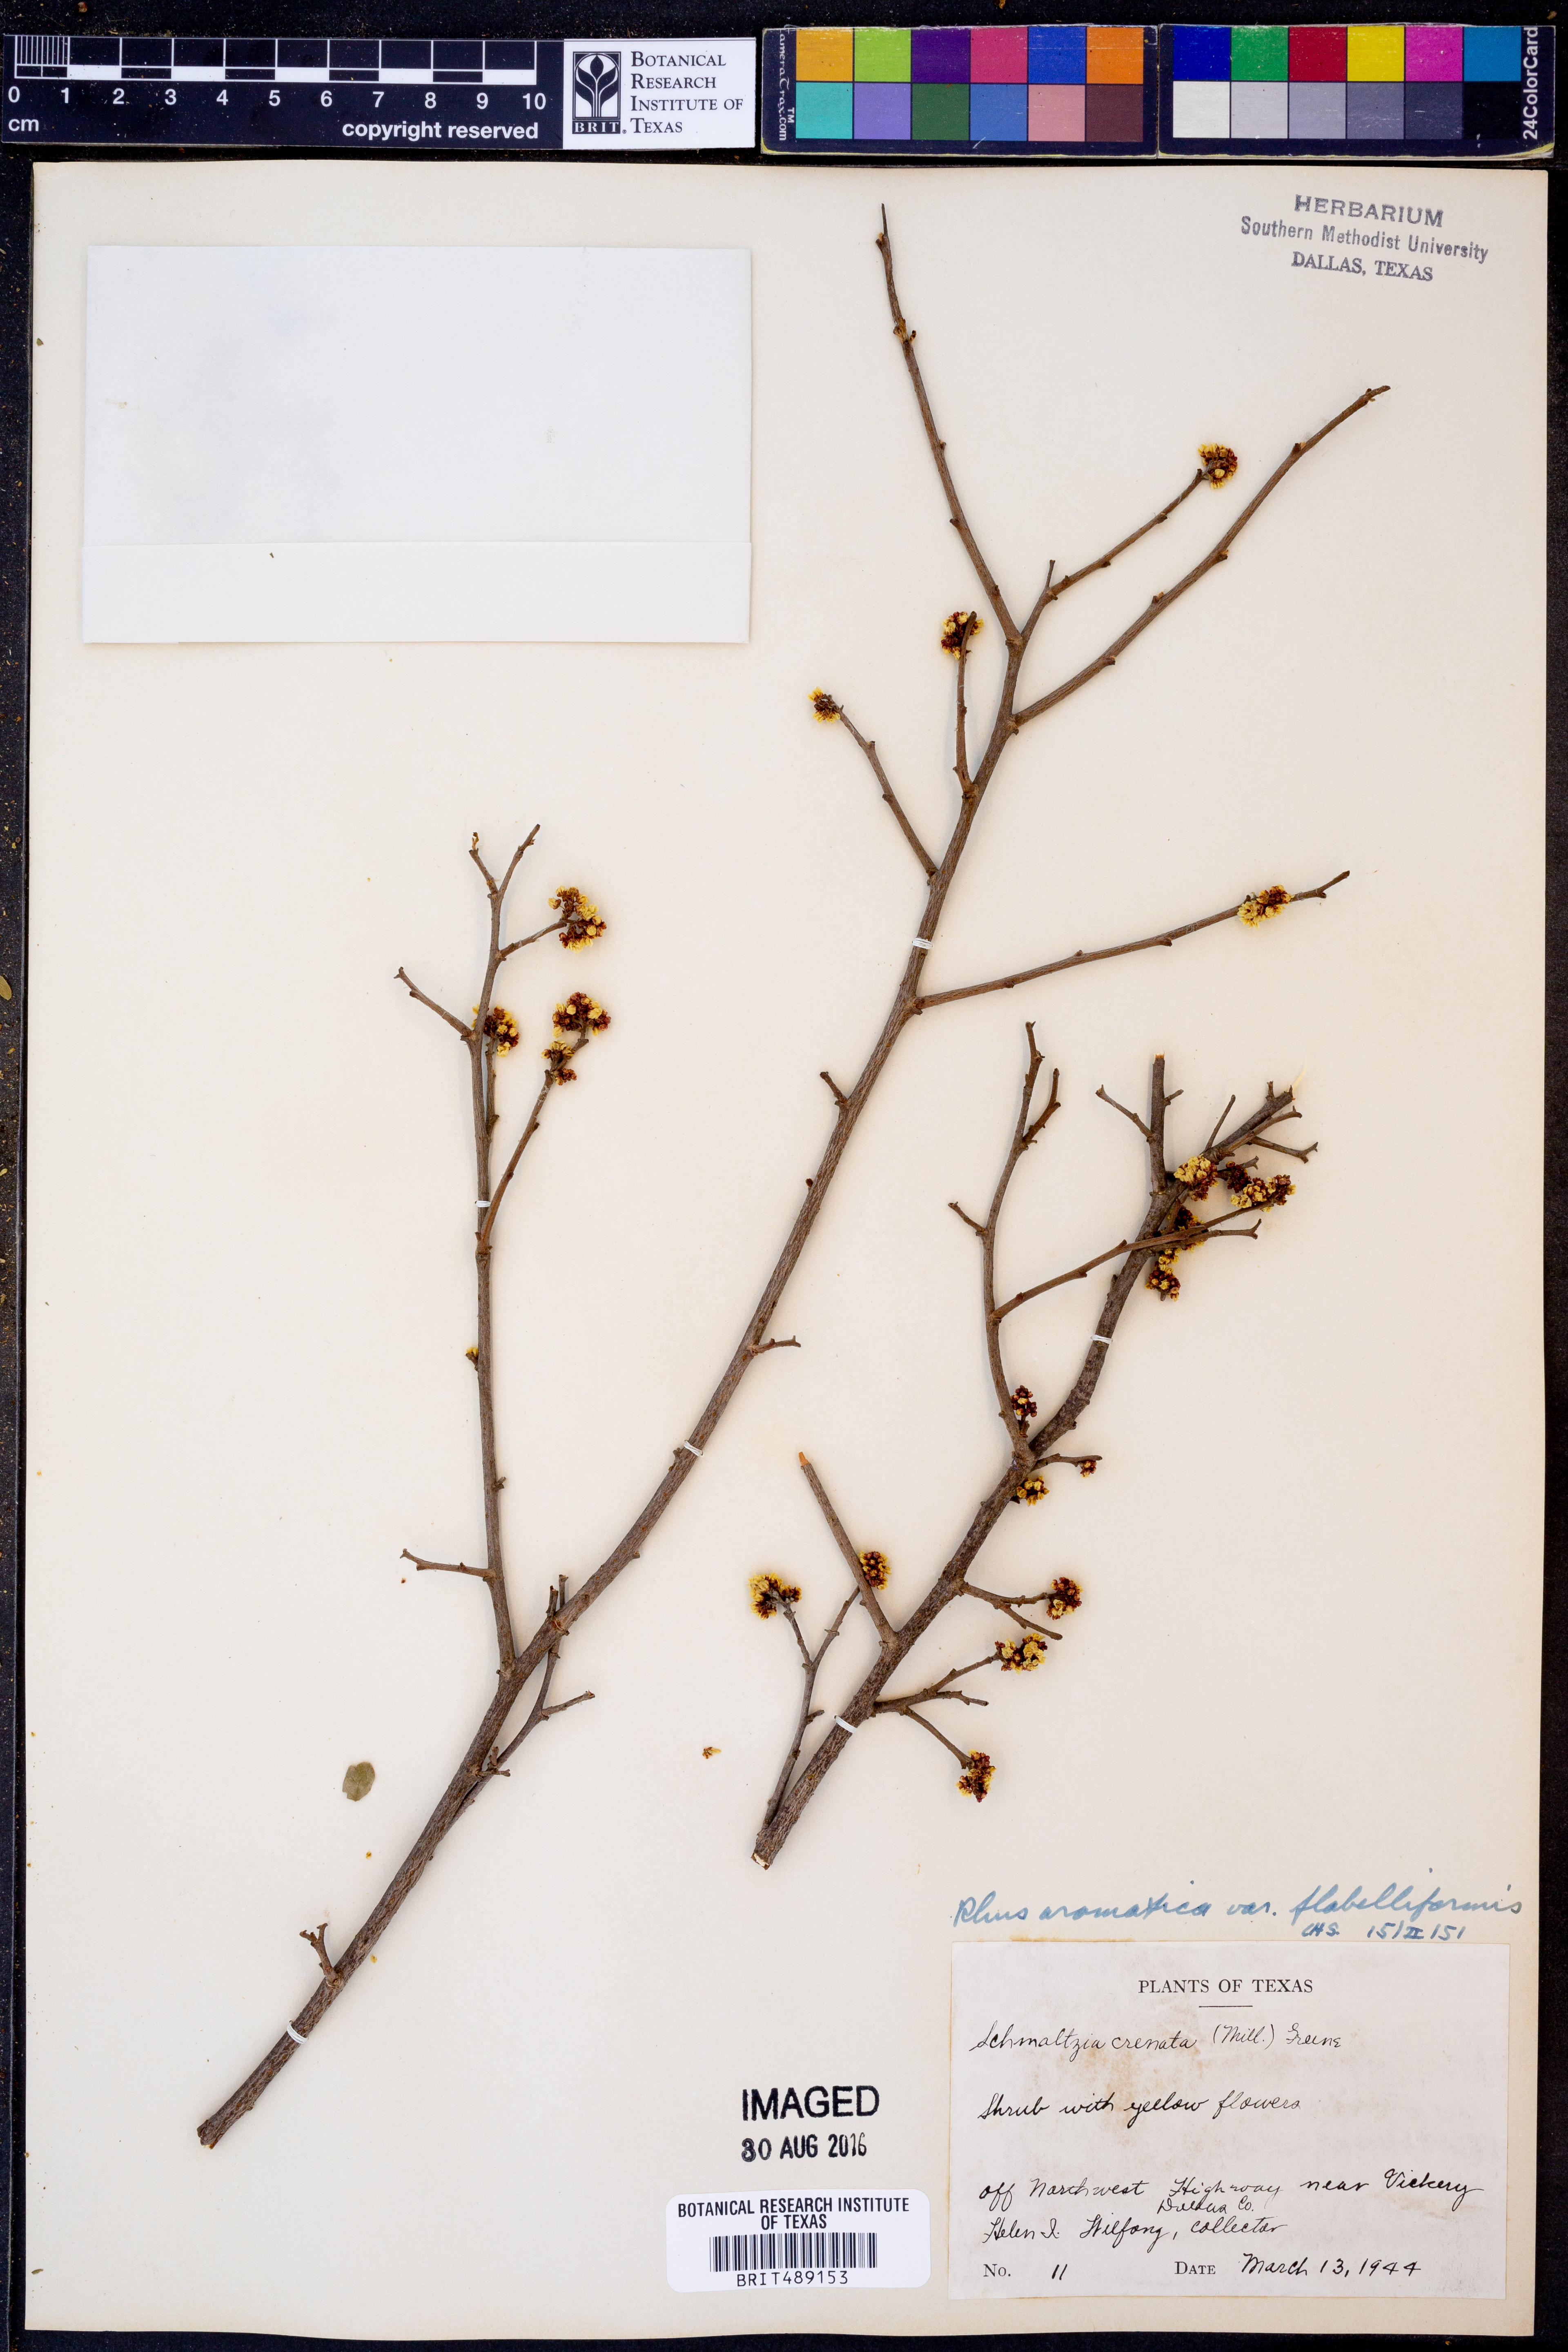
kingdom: Plantae
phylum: Tracheophyta
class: Magnoliopsida
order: Sapindales
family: Anacardiaceae
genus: Rhus
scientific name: Rhus trilobata
